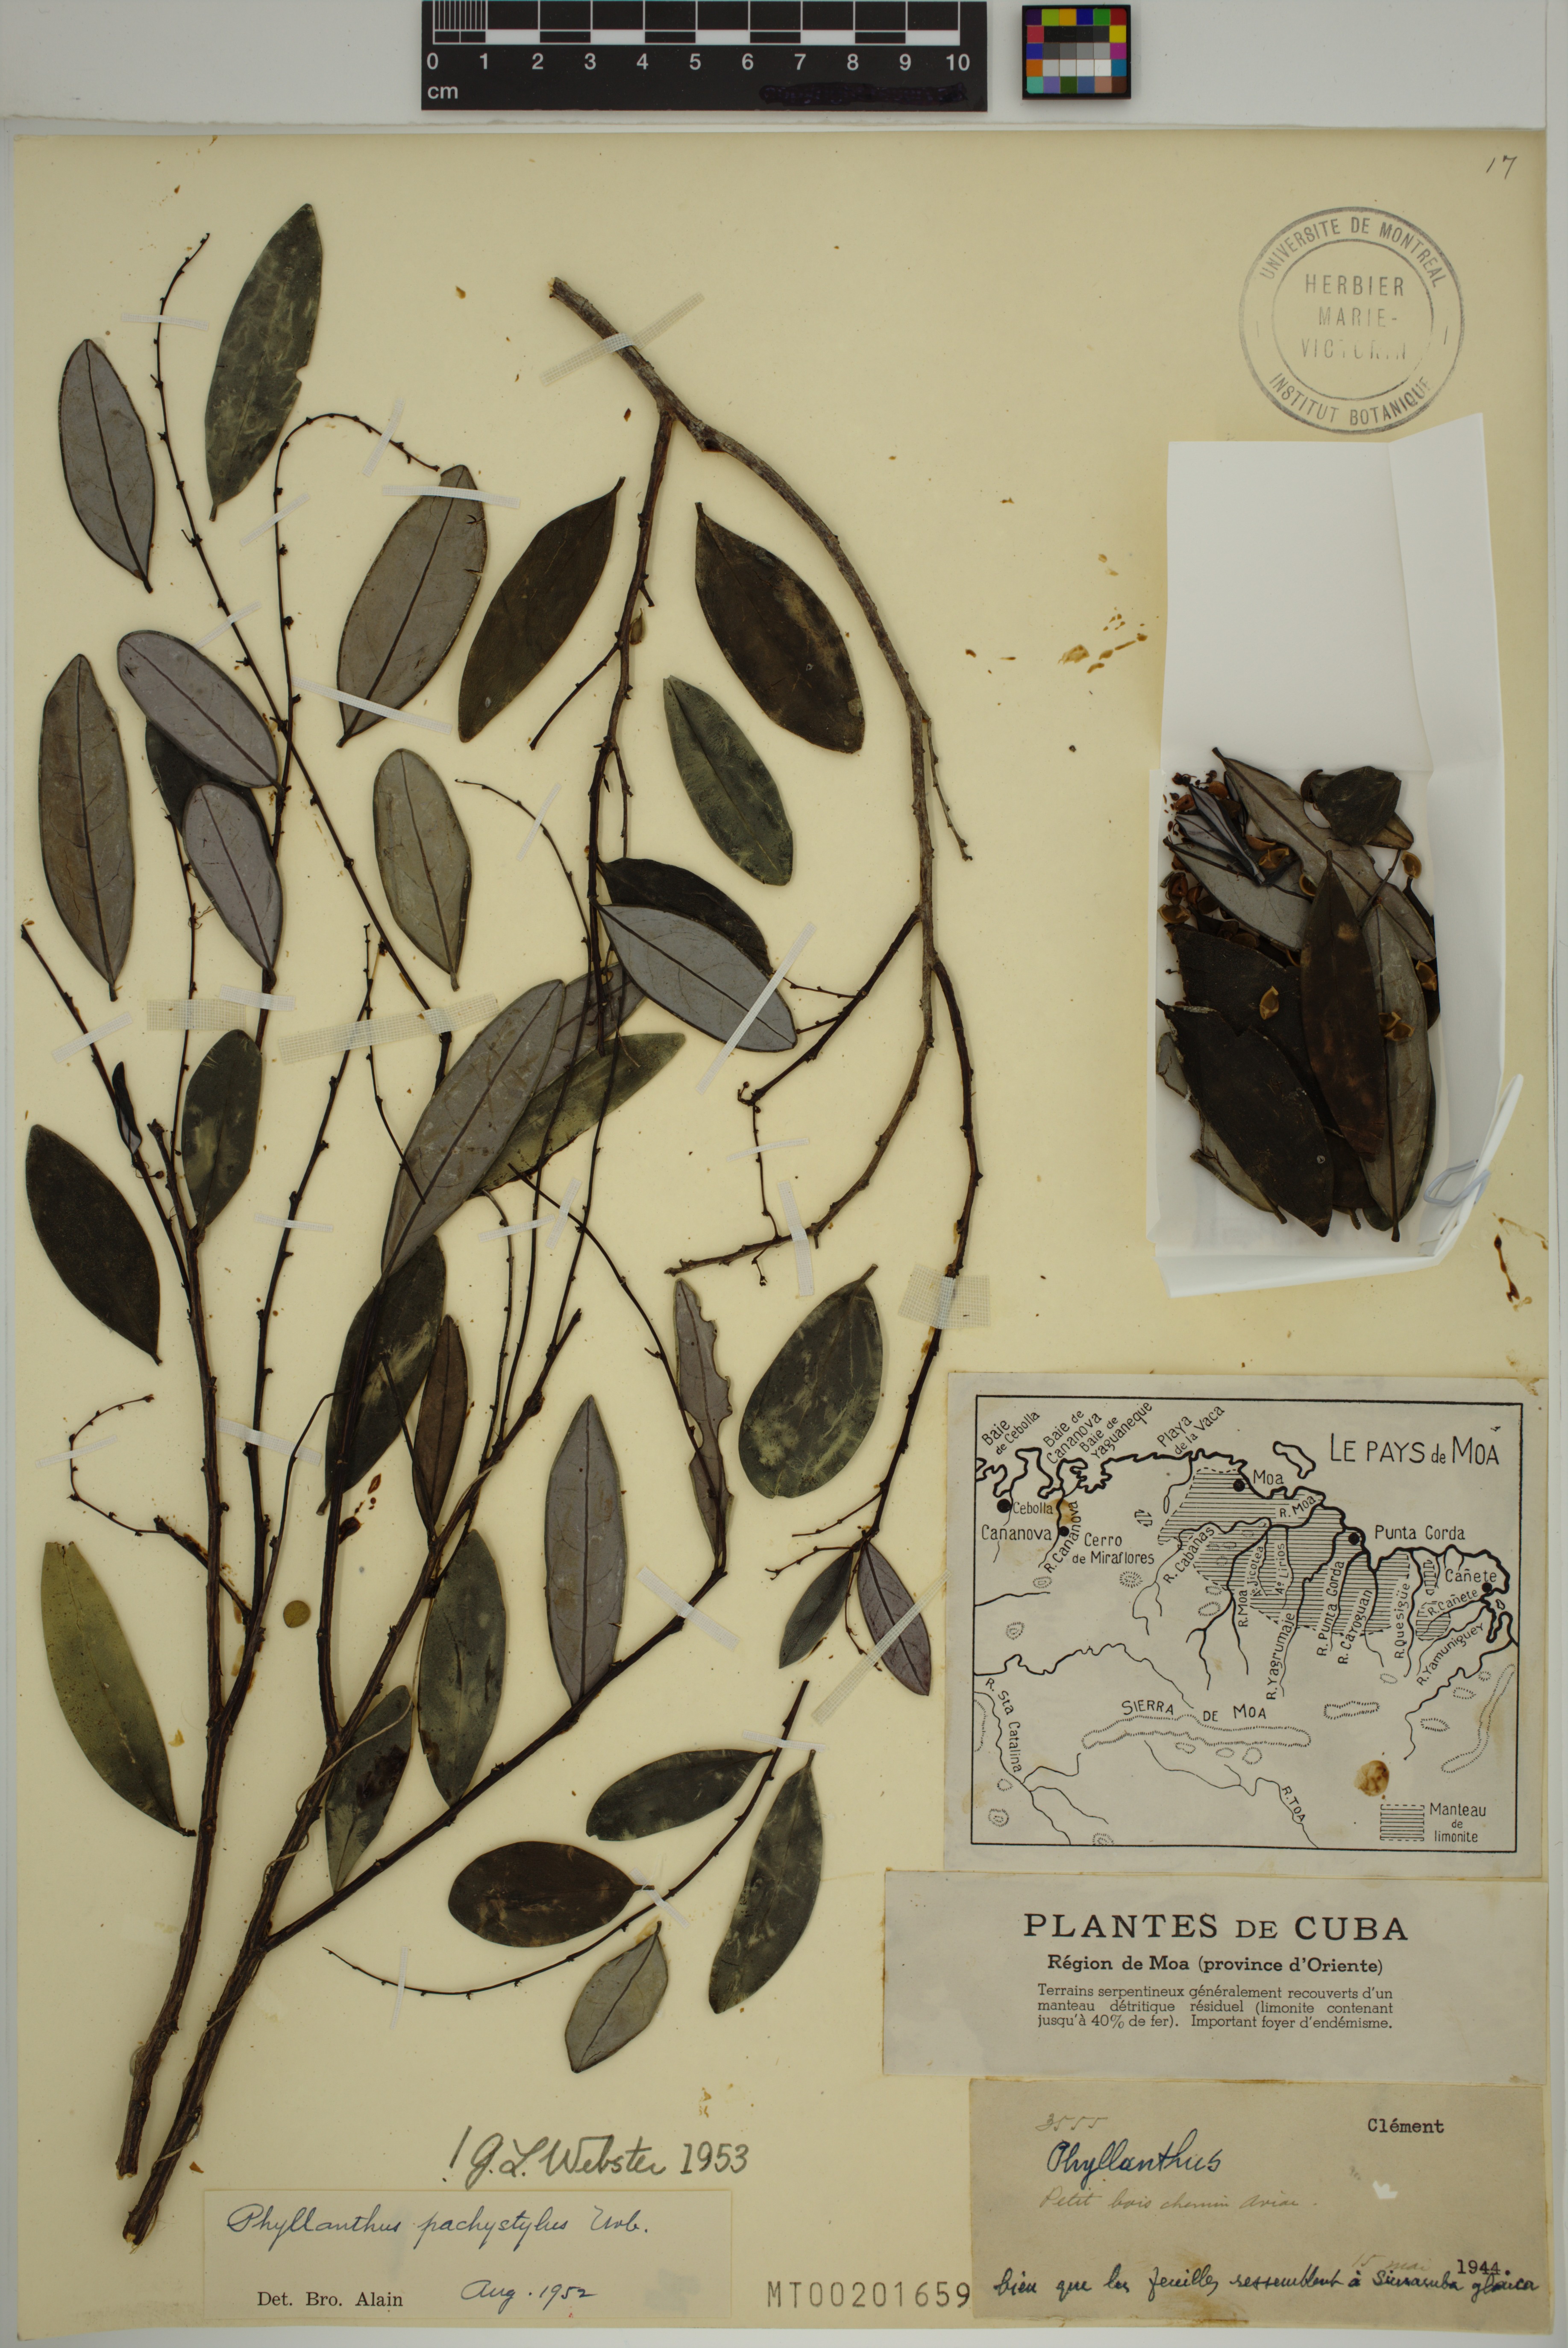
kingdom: Plantae
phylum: Tracheophyta
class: Magnoliopsida
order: Malpighiales
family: Phyllanthaceae
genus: Phyllanthus
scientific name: Phyllanthus pachystylus
